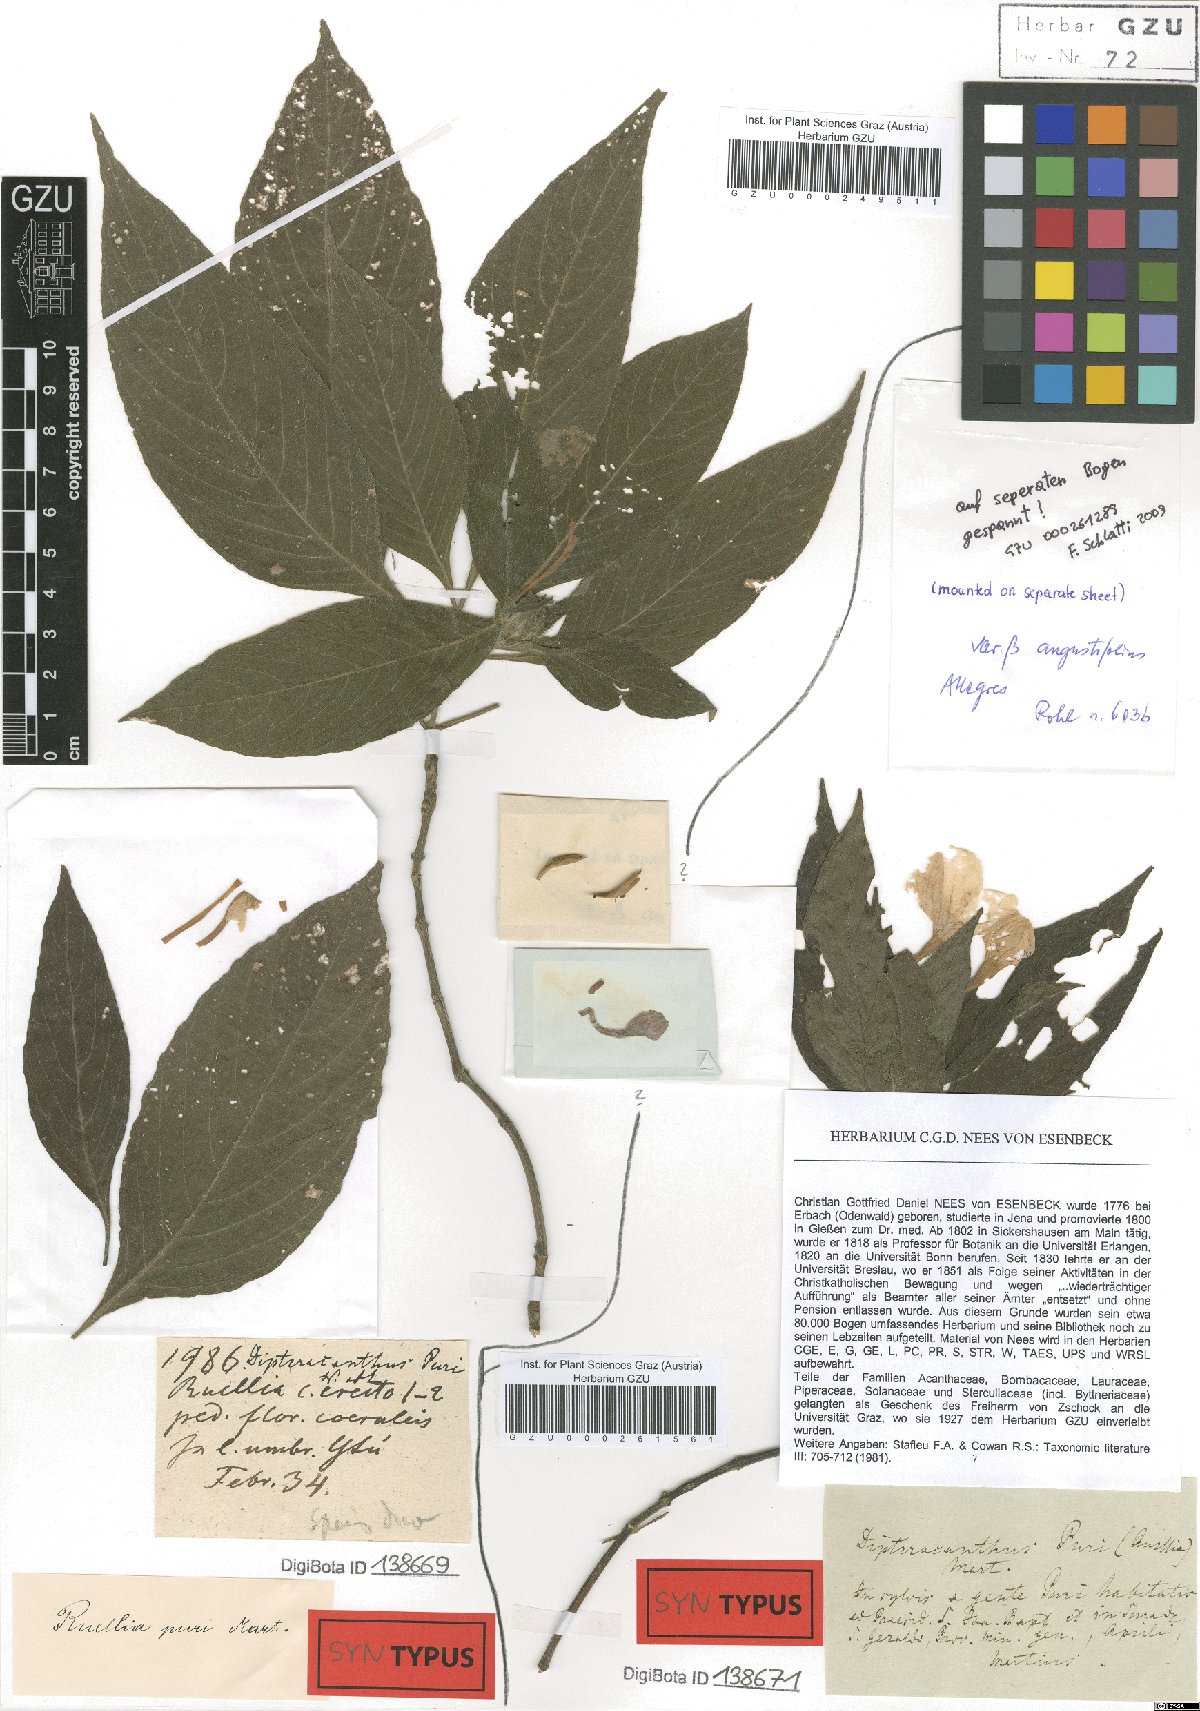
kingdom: Plantae
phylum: Tracheophyta
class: Magnoliopsida
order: Lamiales
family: Acanthaceae
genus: Ruellia
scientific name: Ruellia jussieuoides
